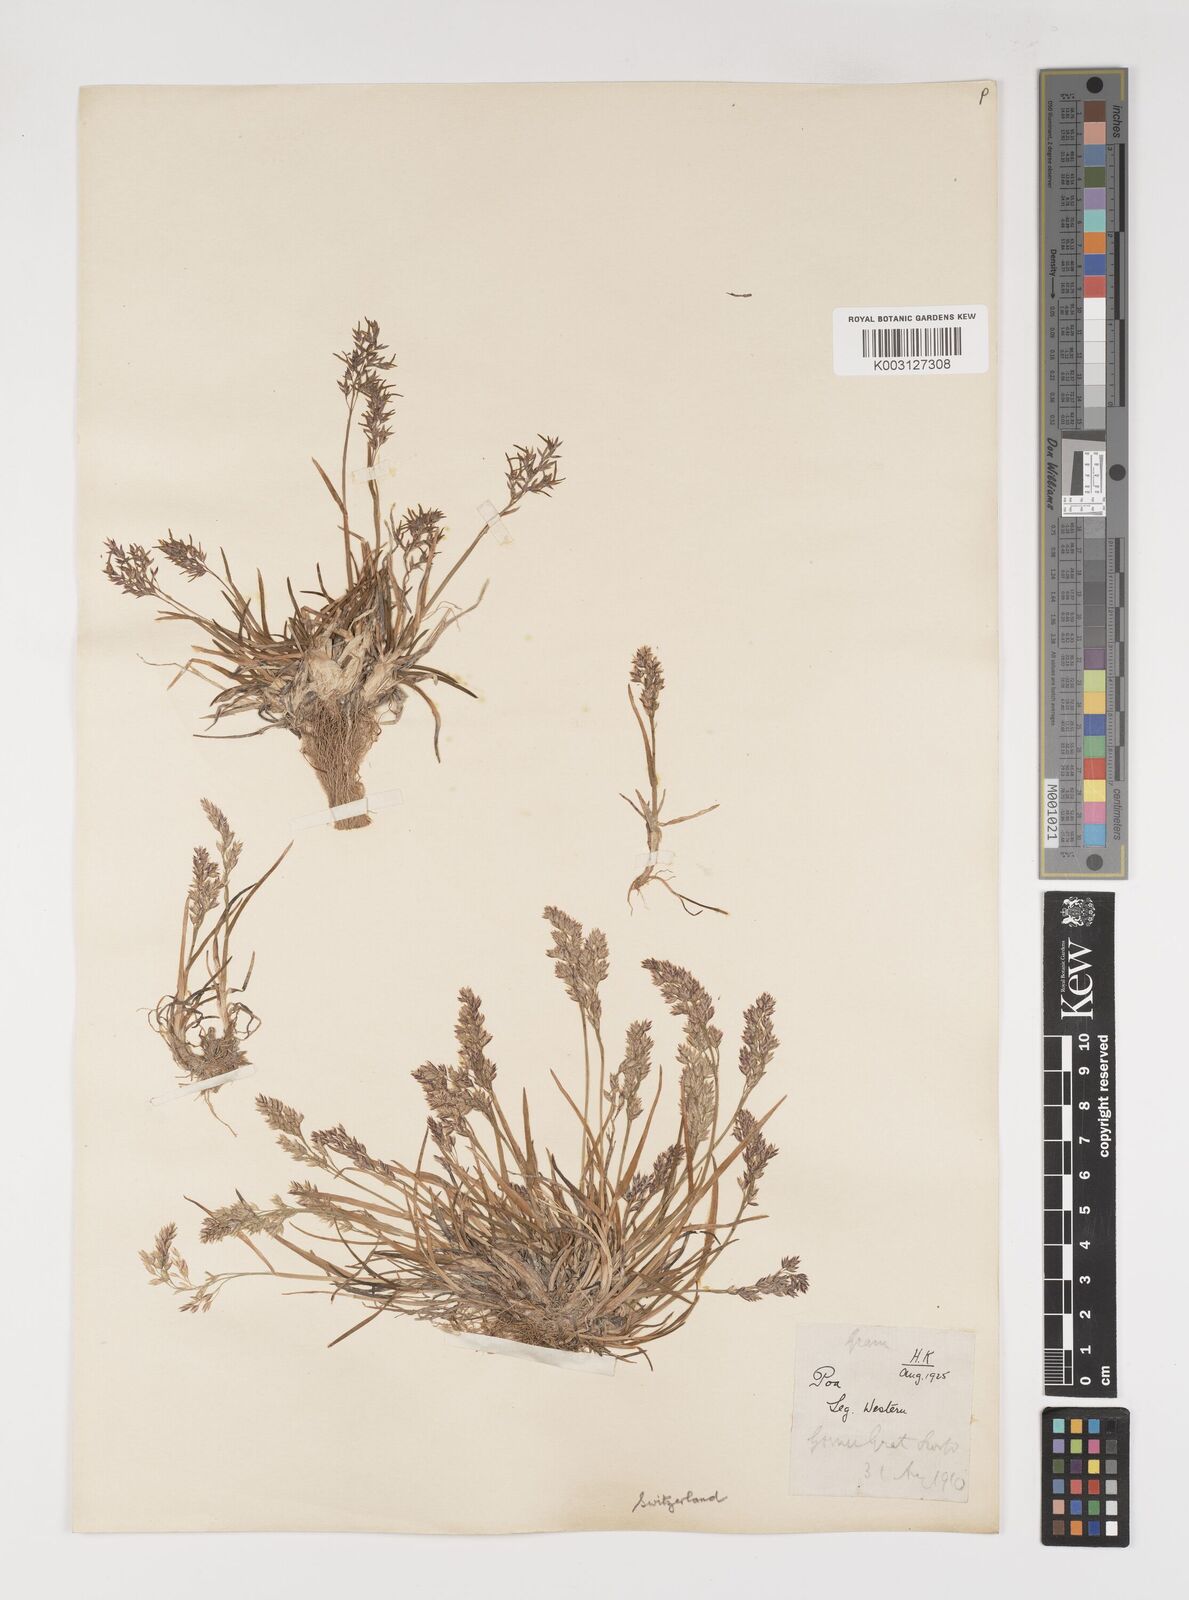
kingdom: Plantae
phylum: Tracheophyta
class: Liliopsida
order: Poales
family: Poaceae
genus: Poa
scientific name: Poa alpina
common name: Alpine bluegrass
